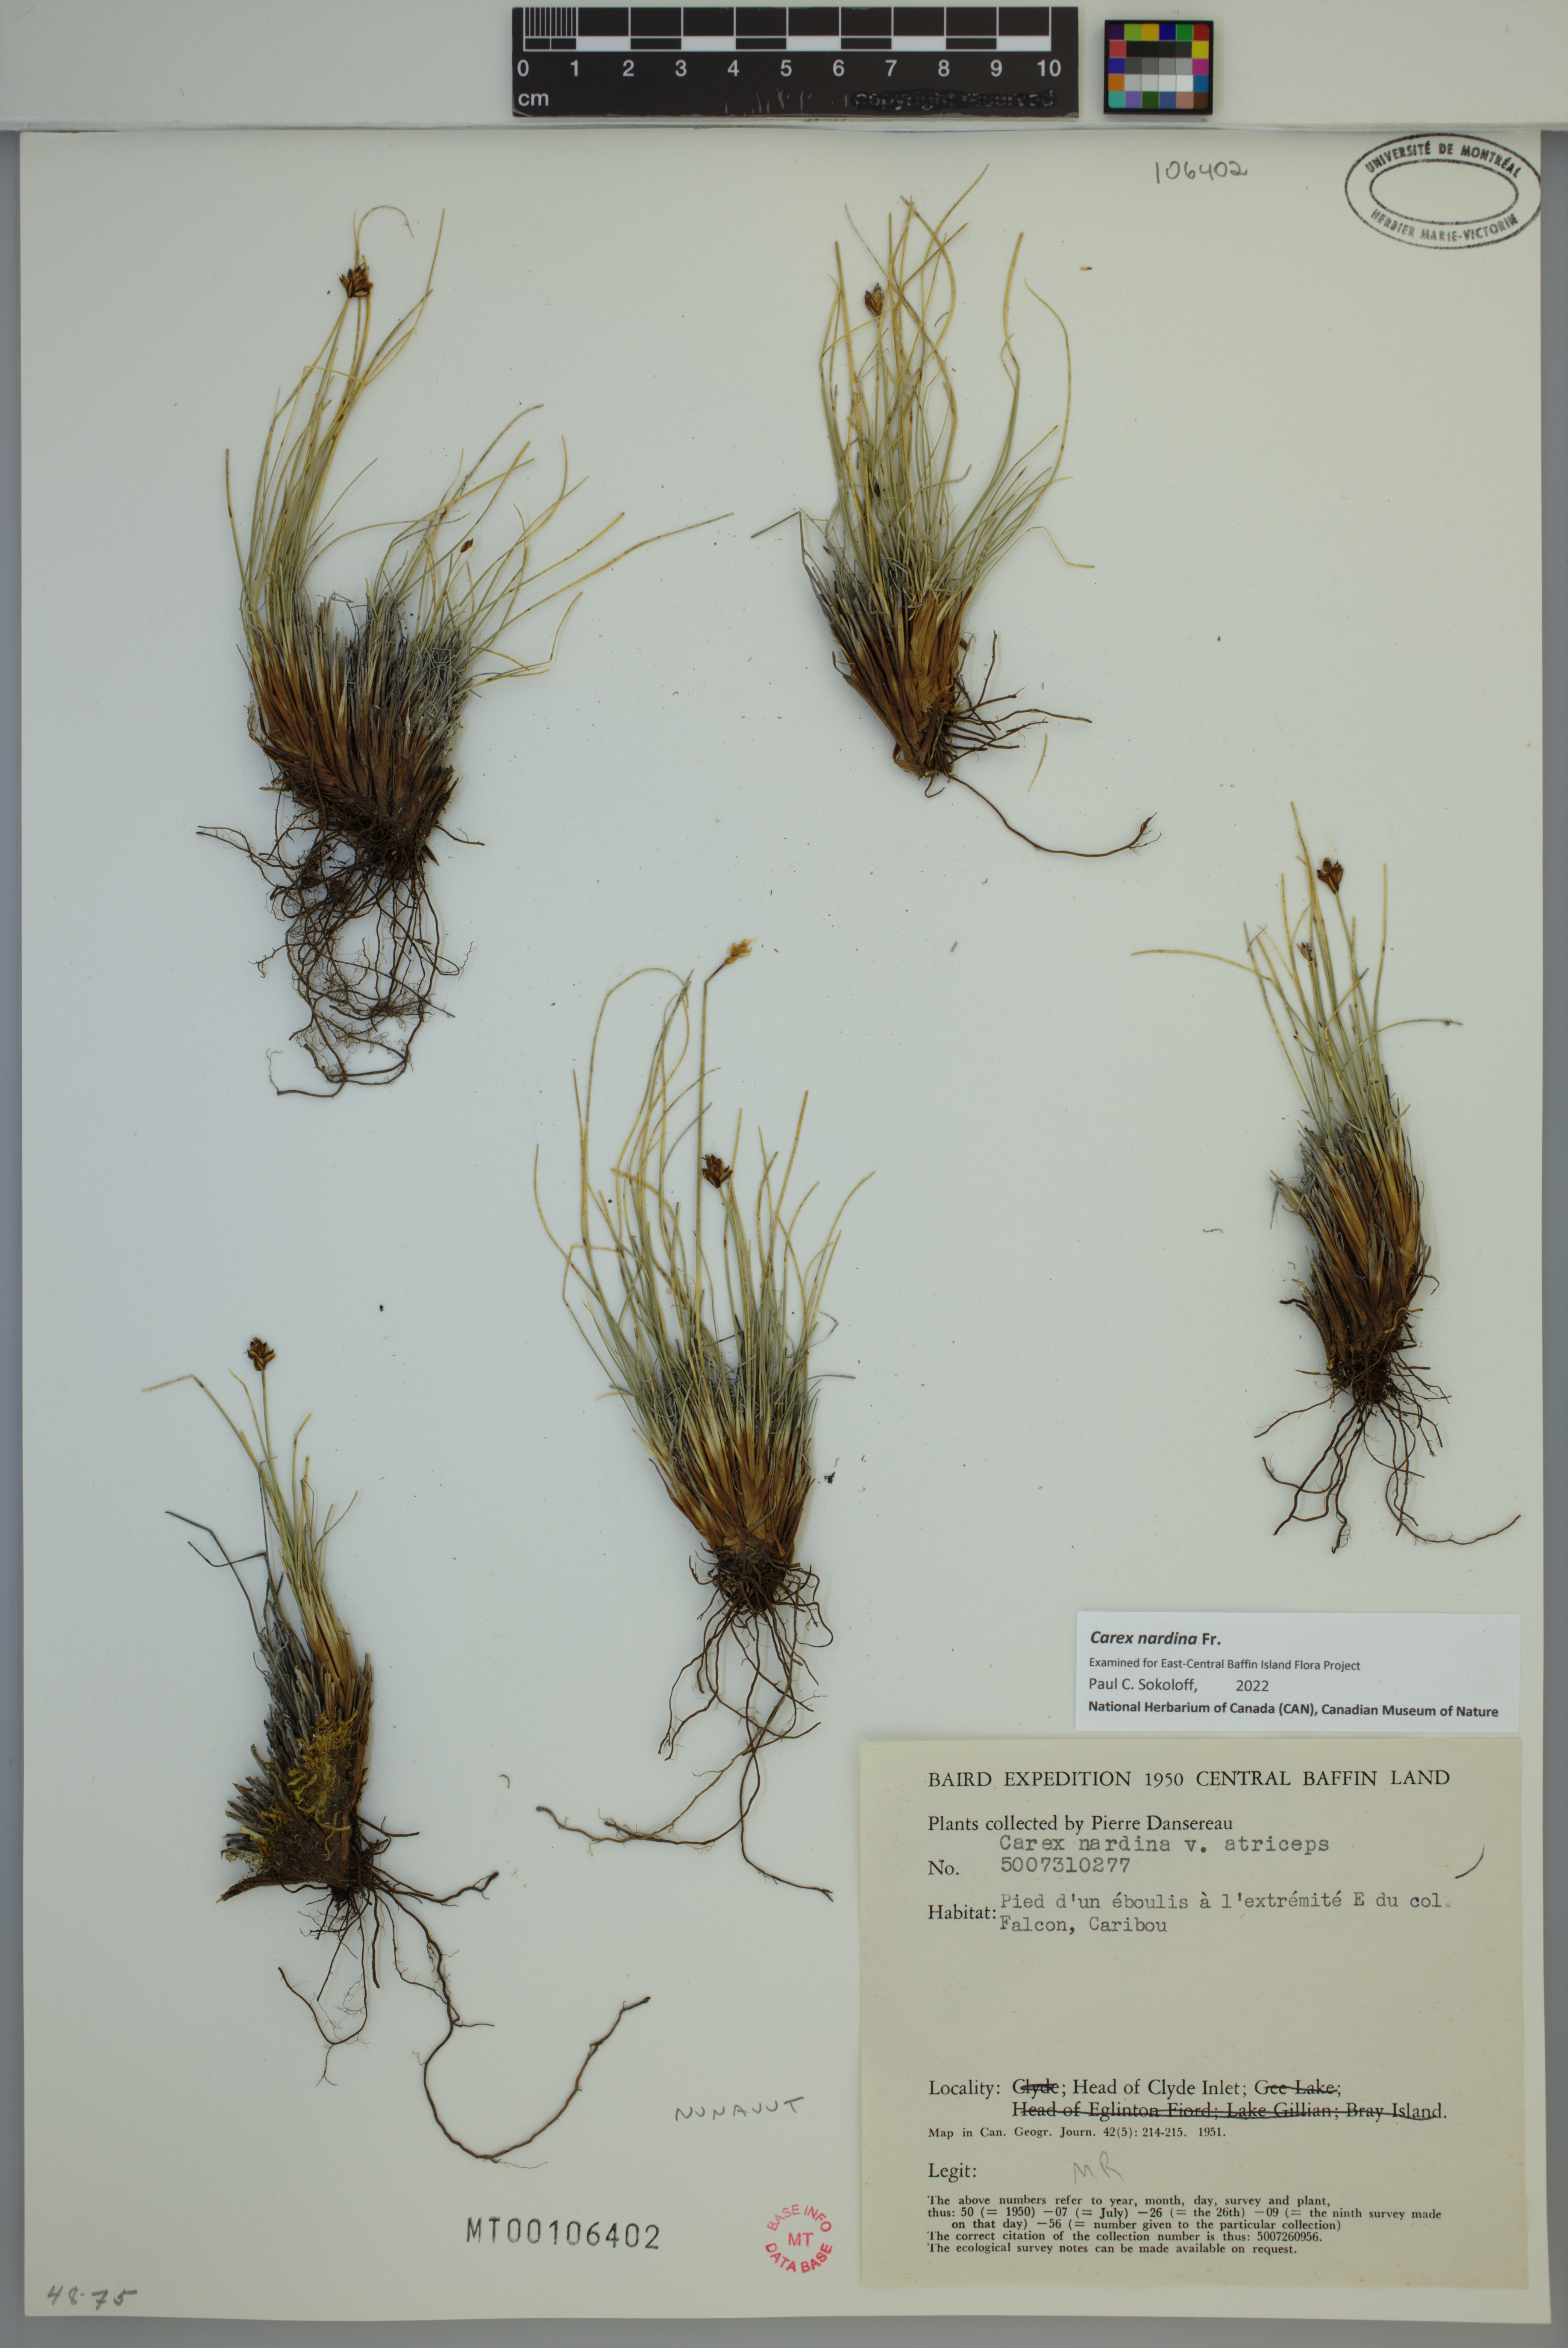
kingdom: Plantae
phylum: Tracheophyta
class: Liliopsida
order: Poales
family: Cyperaceae
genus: Carex
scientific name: Carex nardina
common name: Nard sedge
